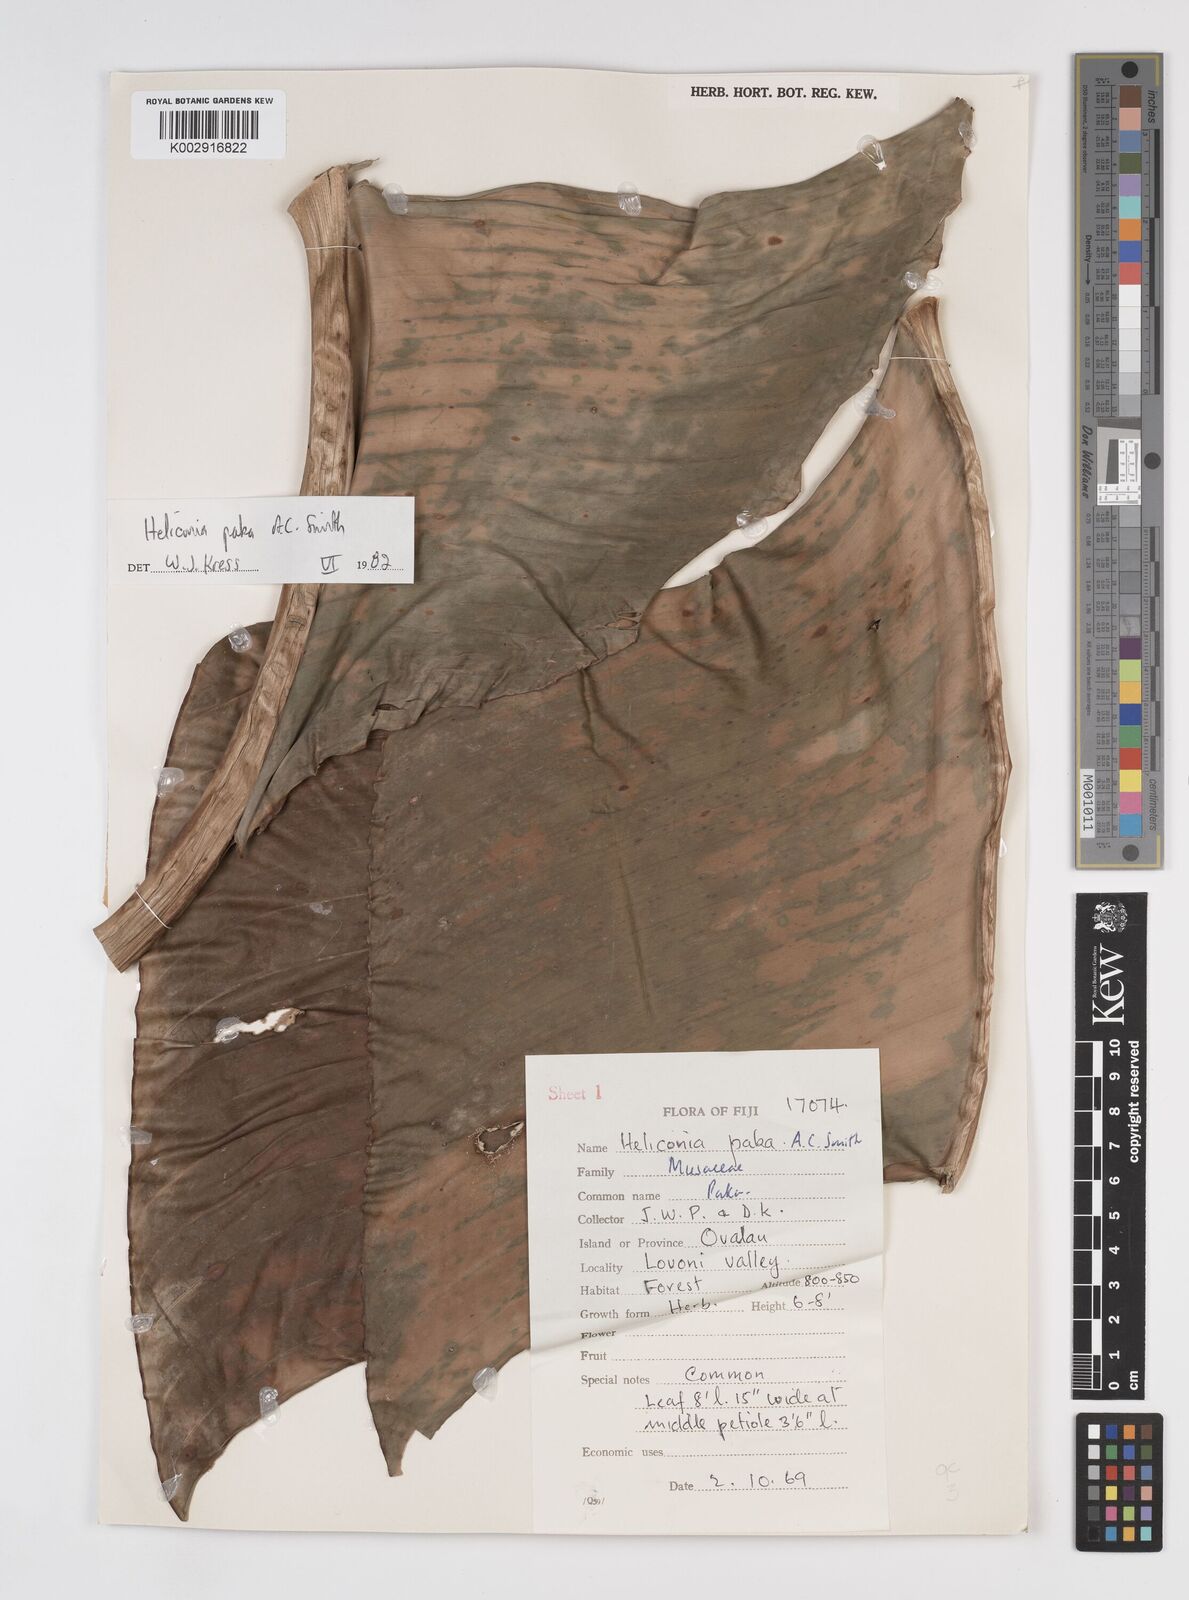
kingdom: Plantae
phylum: Tracheophyta
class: Liliopsida
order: Zingiberales
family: Heliconiaceae
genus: Heliconia
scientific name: Heliconia paka
